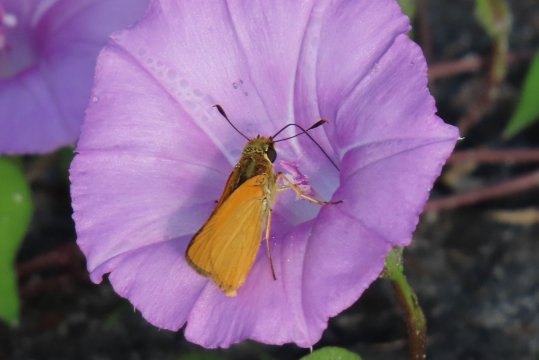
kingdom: Animalia
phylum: Arthropoda
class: Insecta
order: Lepidoptera
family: Hesperiidae
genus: Atrytone
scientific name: Atrytone delaware
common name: Delaware Skipper
